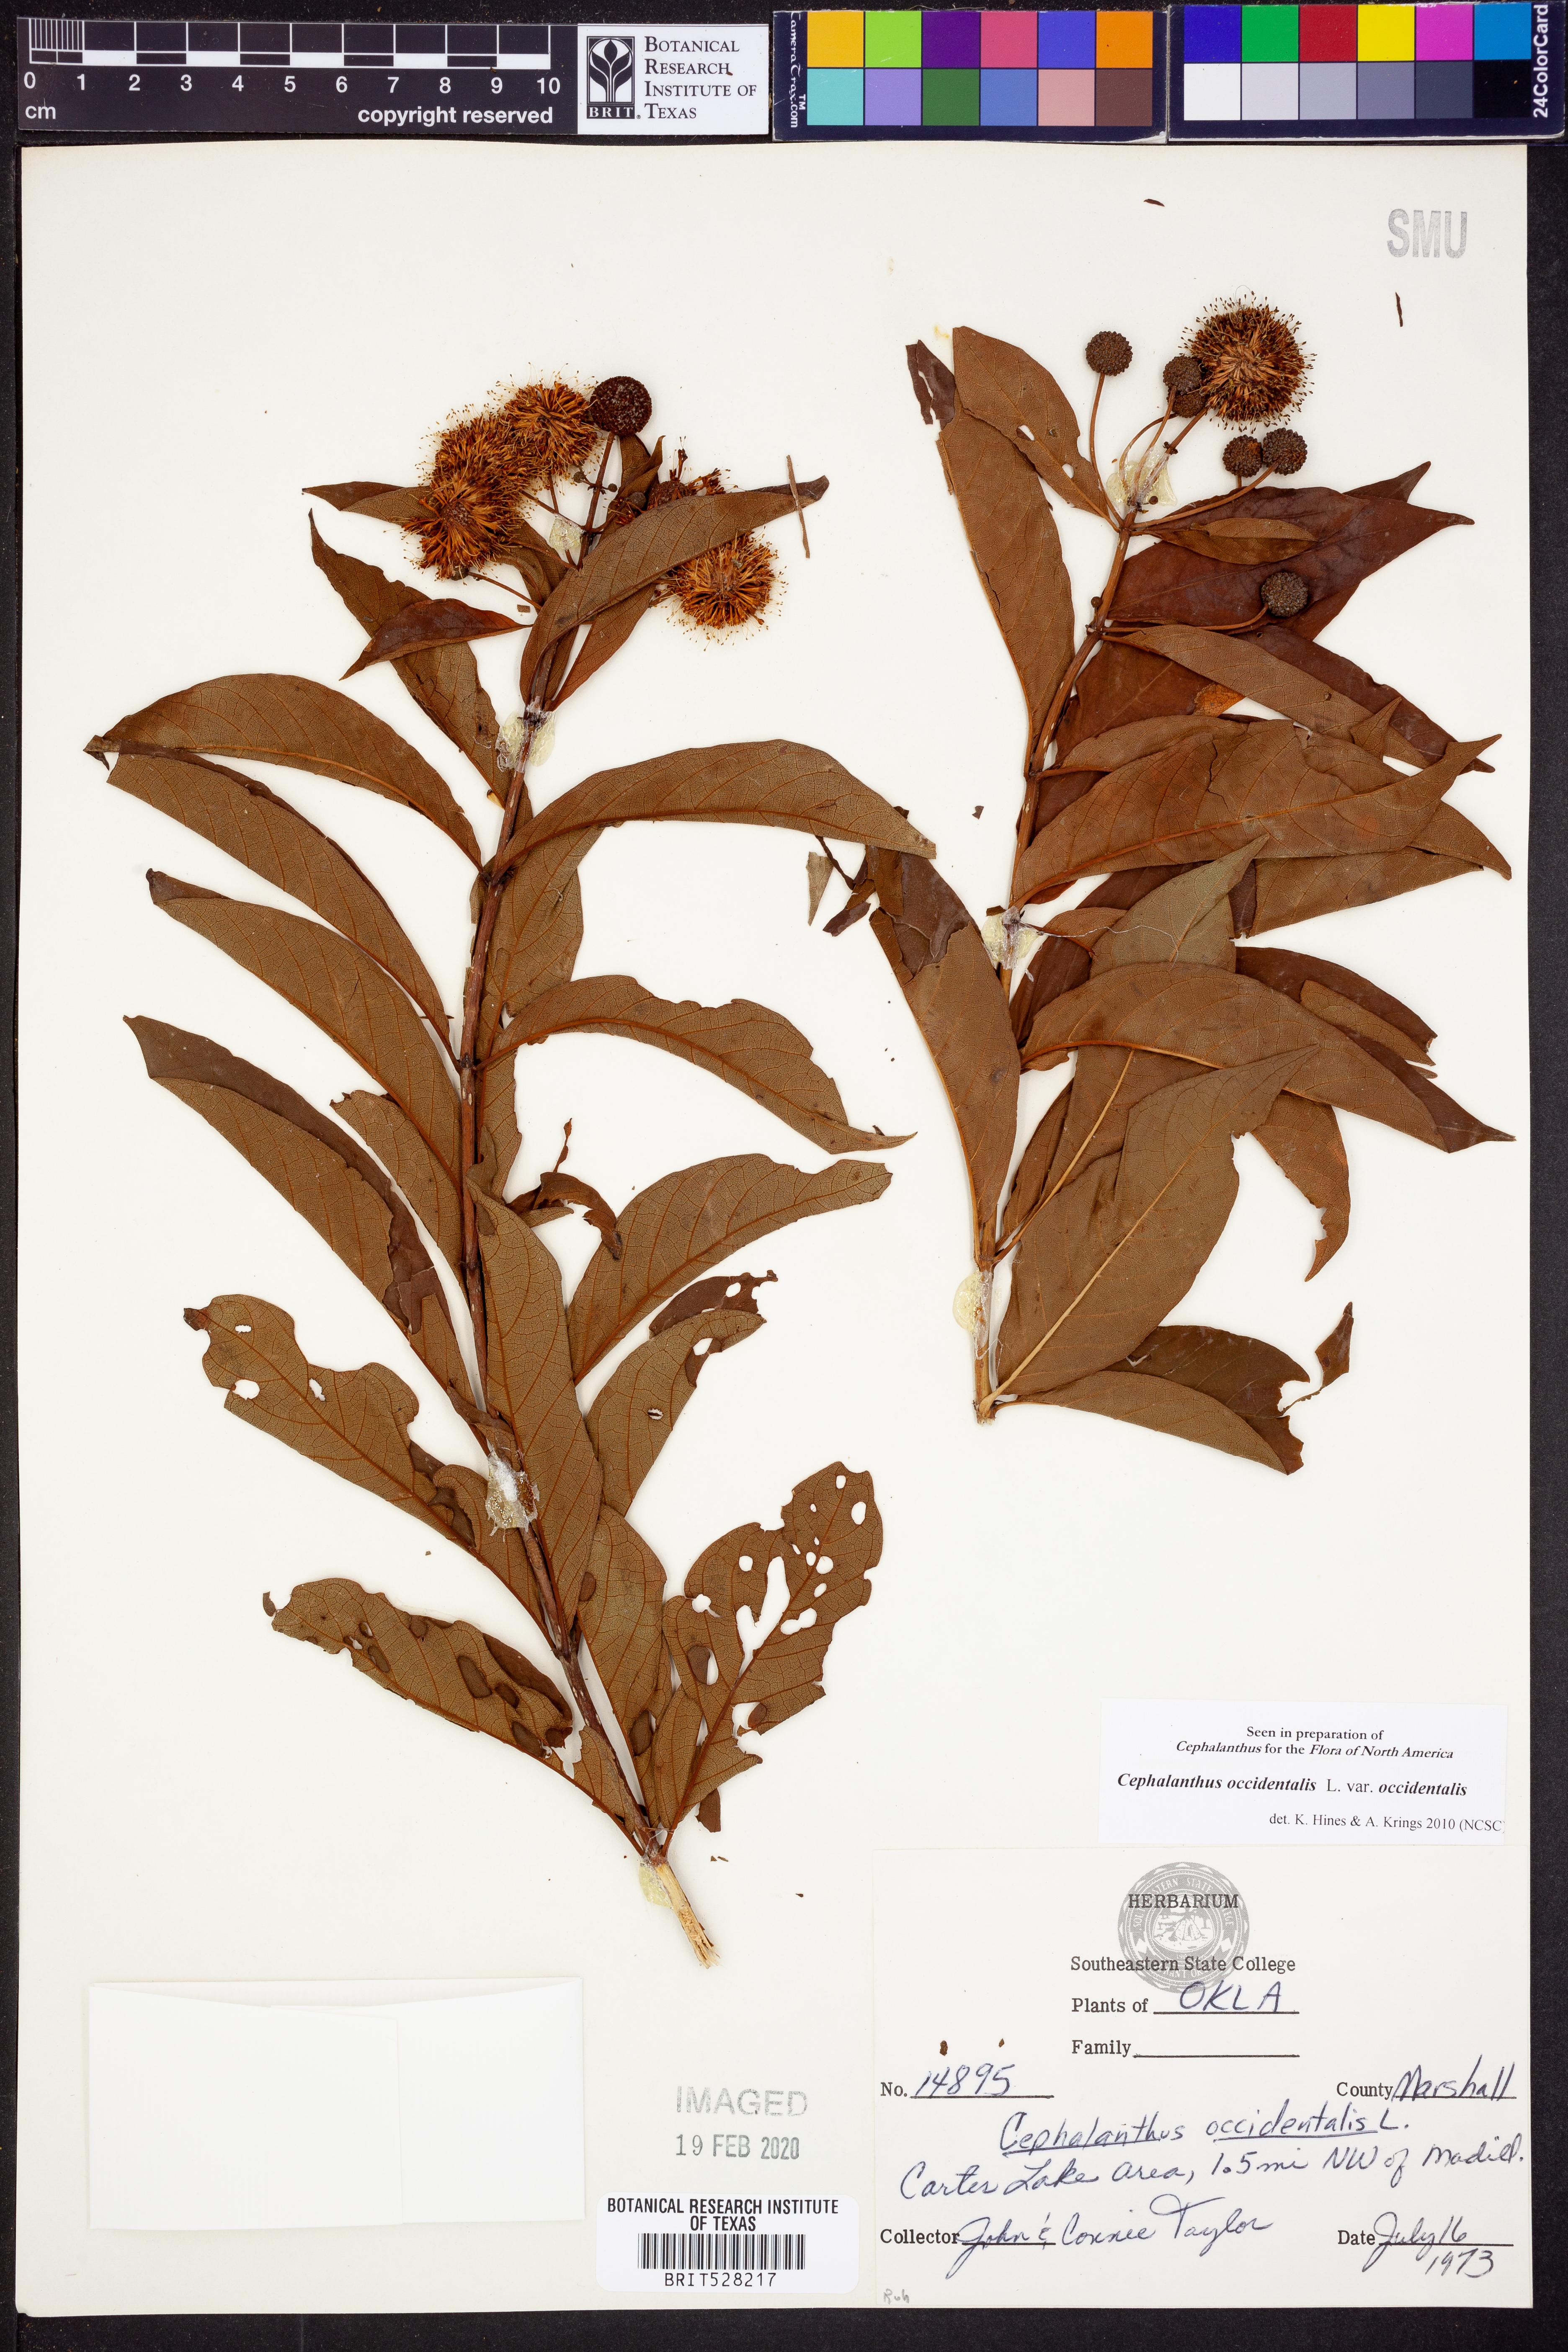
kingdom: Plantae
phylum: Tracheophyta
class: Magnoliopsida
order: Gentianales
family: Rubiaceae
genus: Cephalanthus
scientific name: Cephalanthus occidentalis
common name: Button-willow
